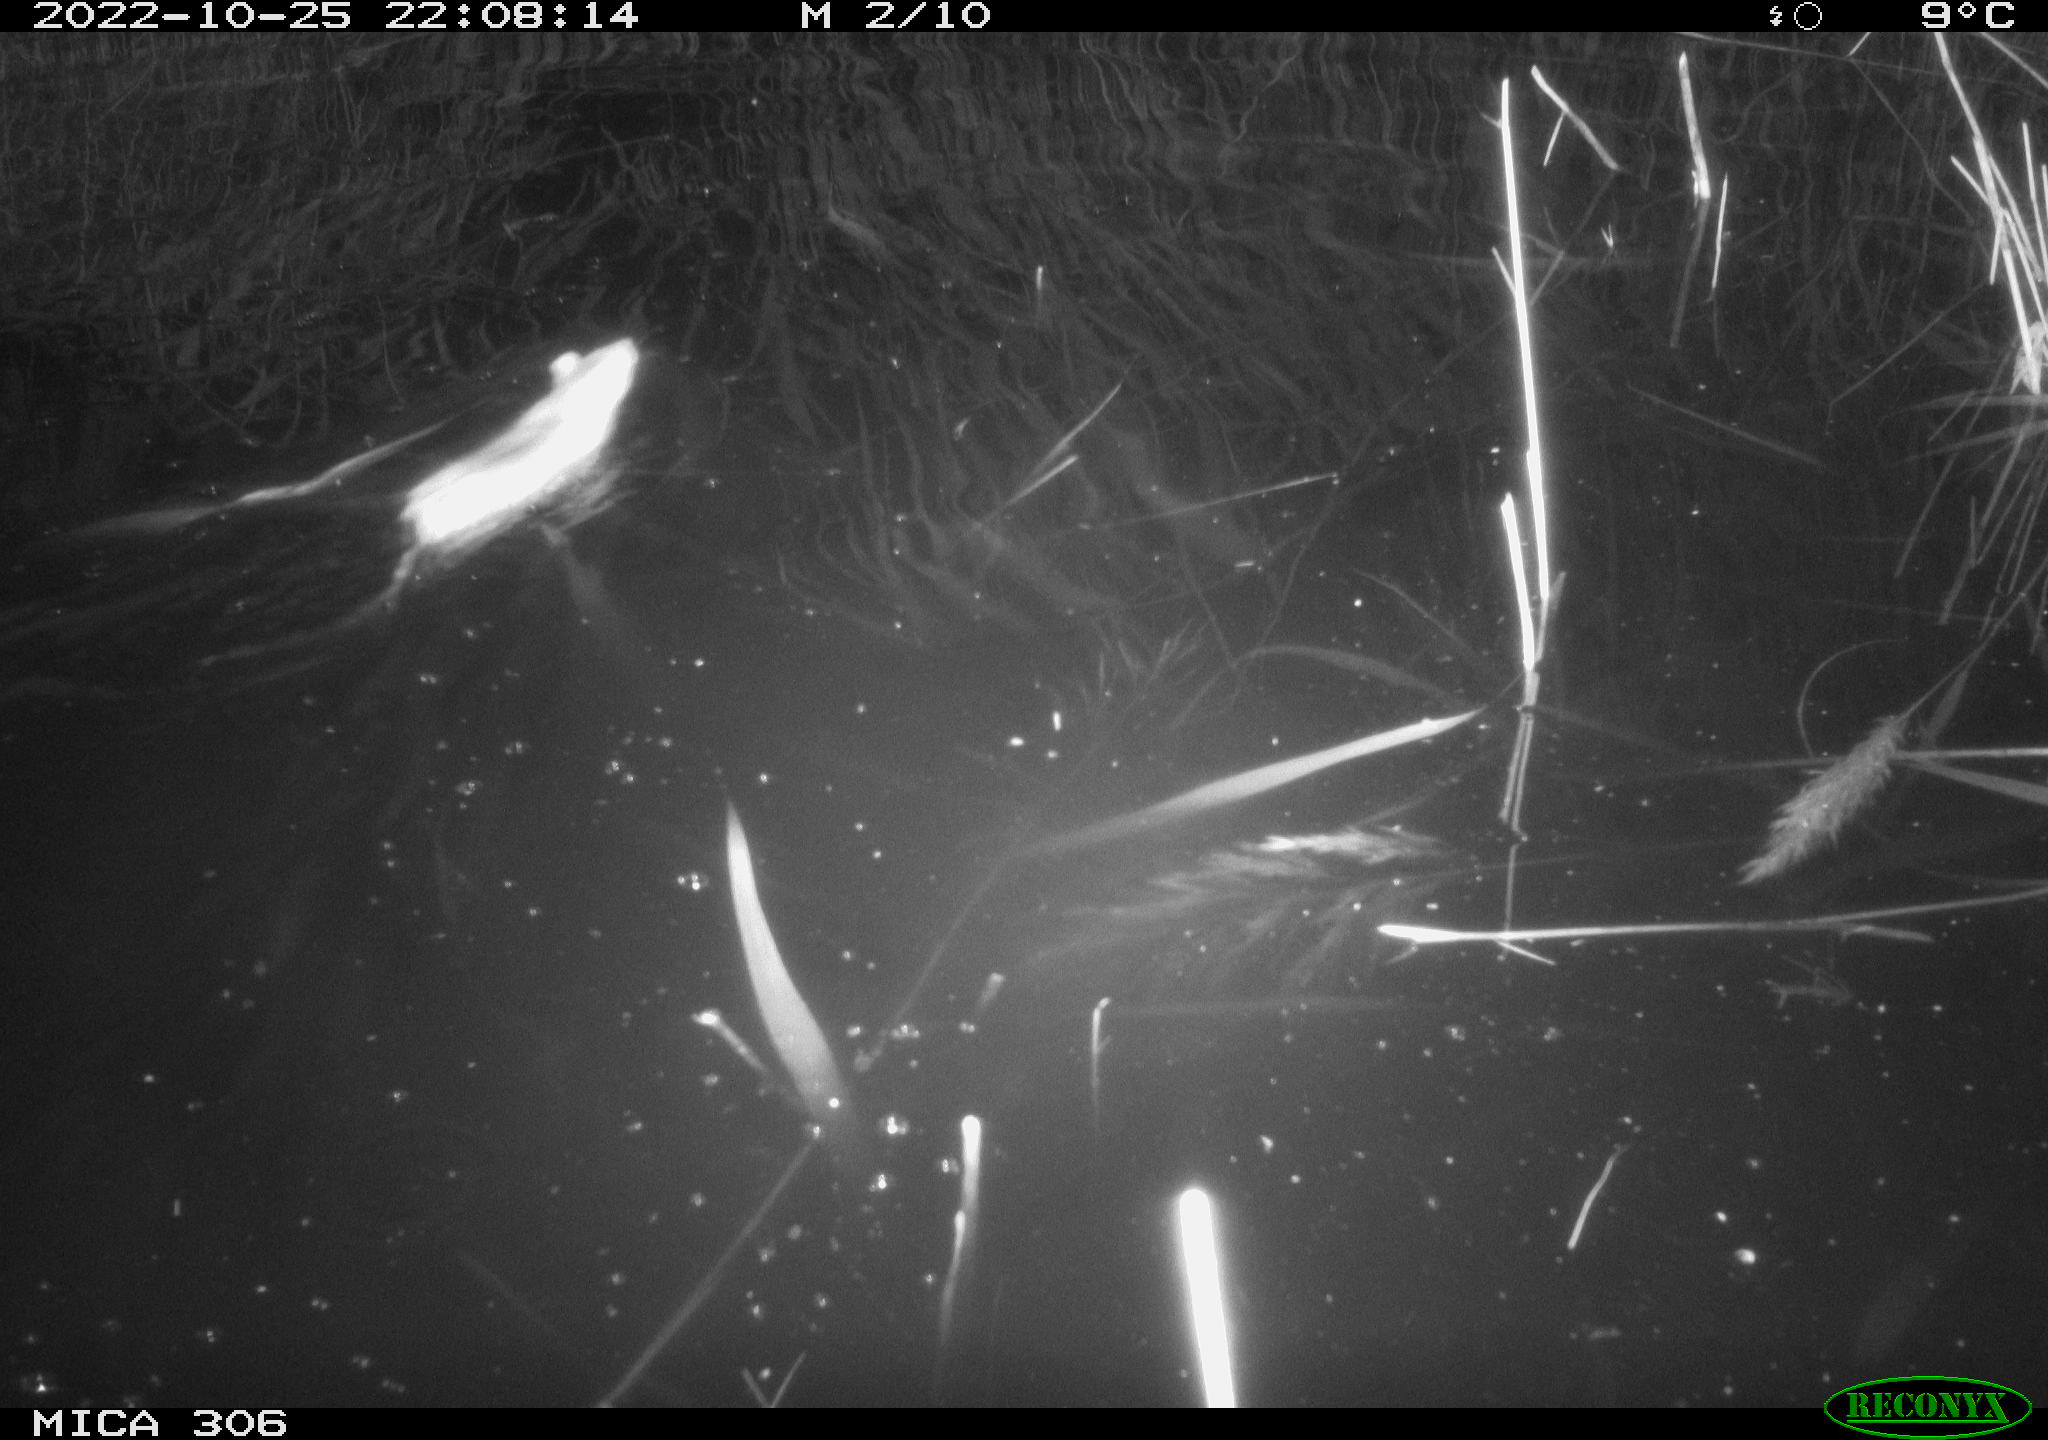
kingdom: Animalia
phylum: Chordata
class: Mammalia
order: Rodentia
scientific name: Rodentia
